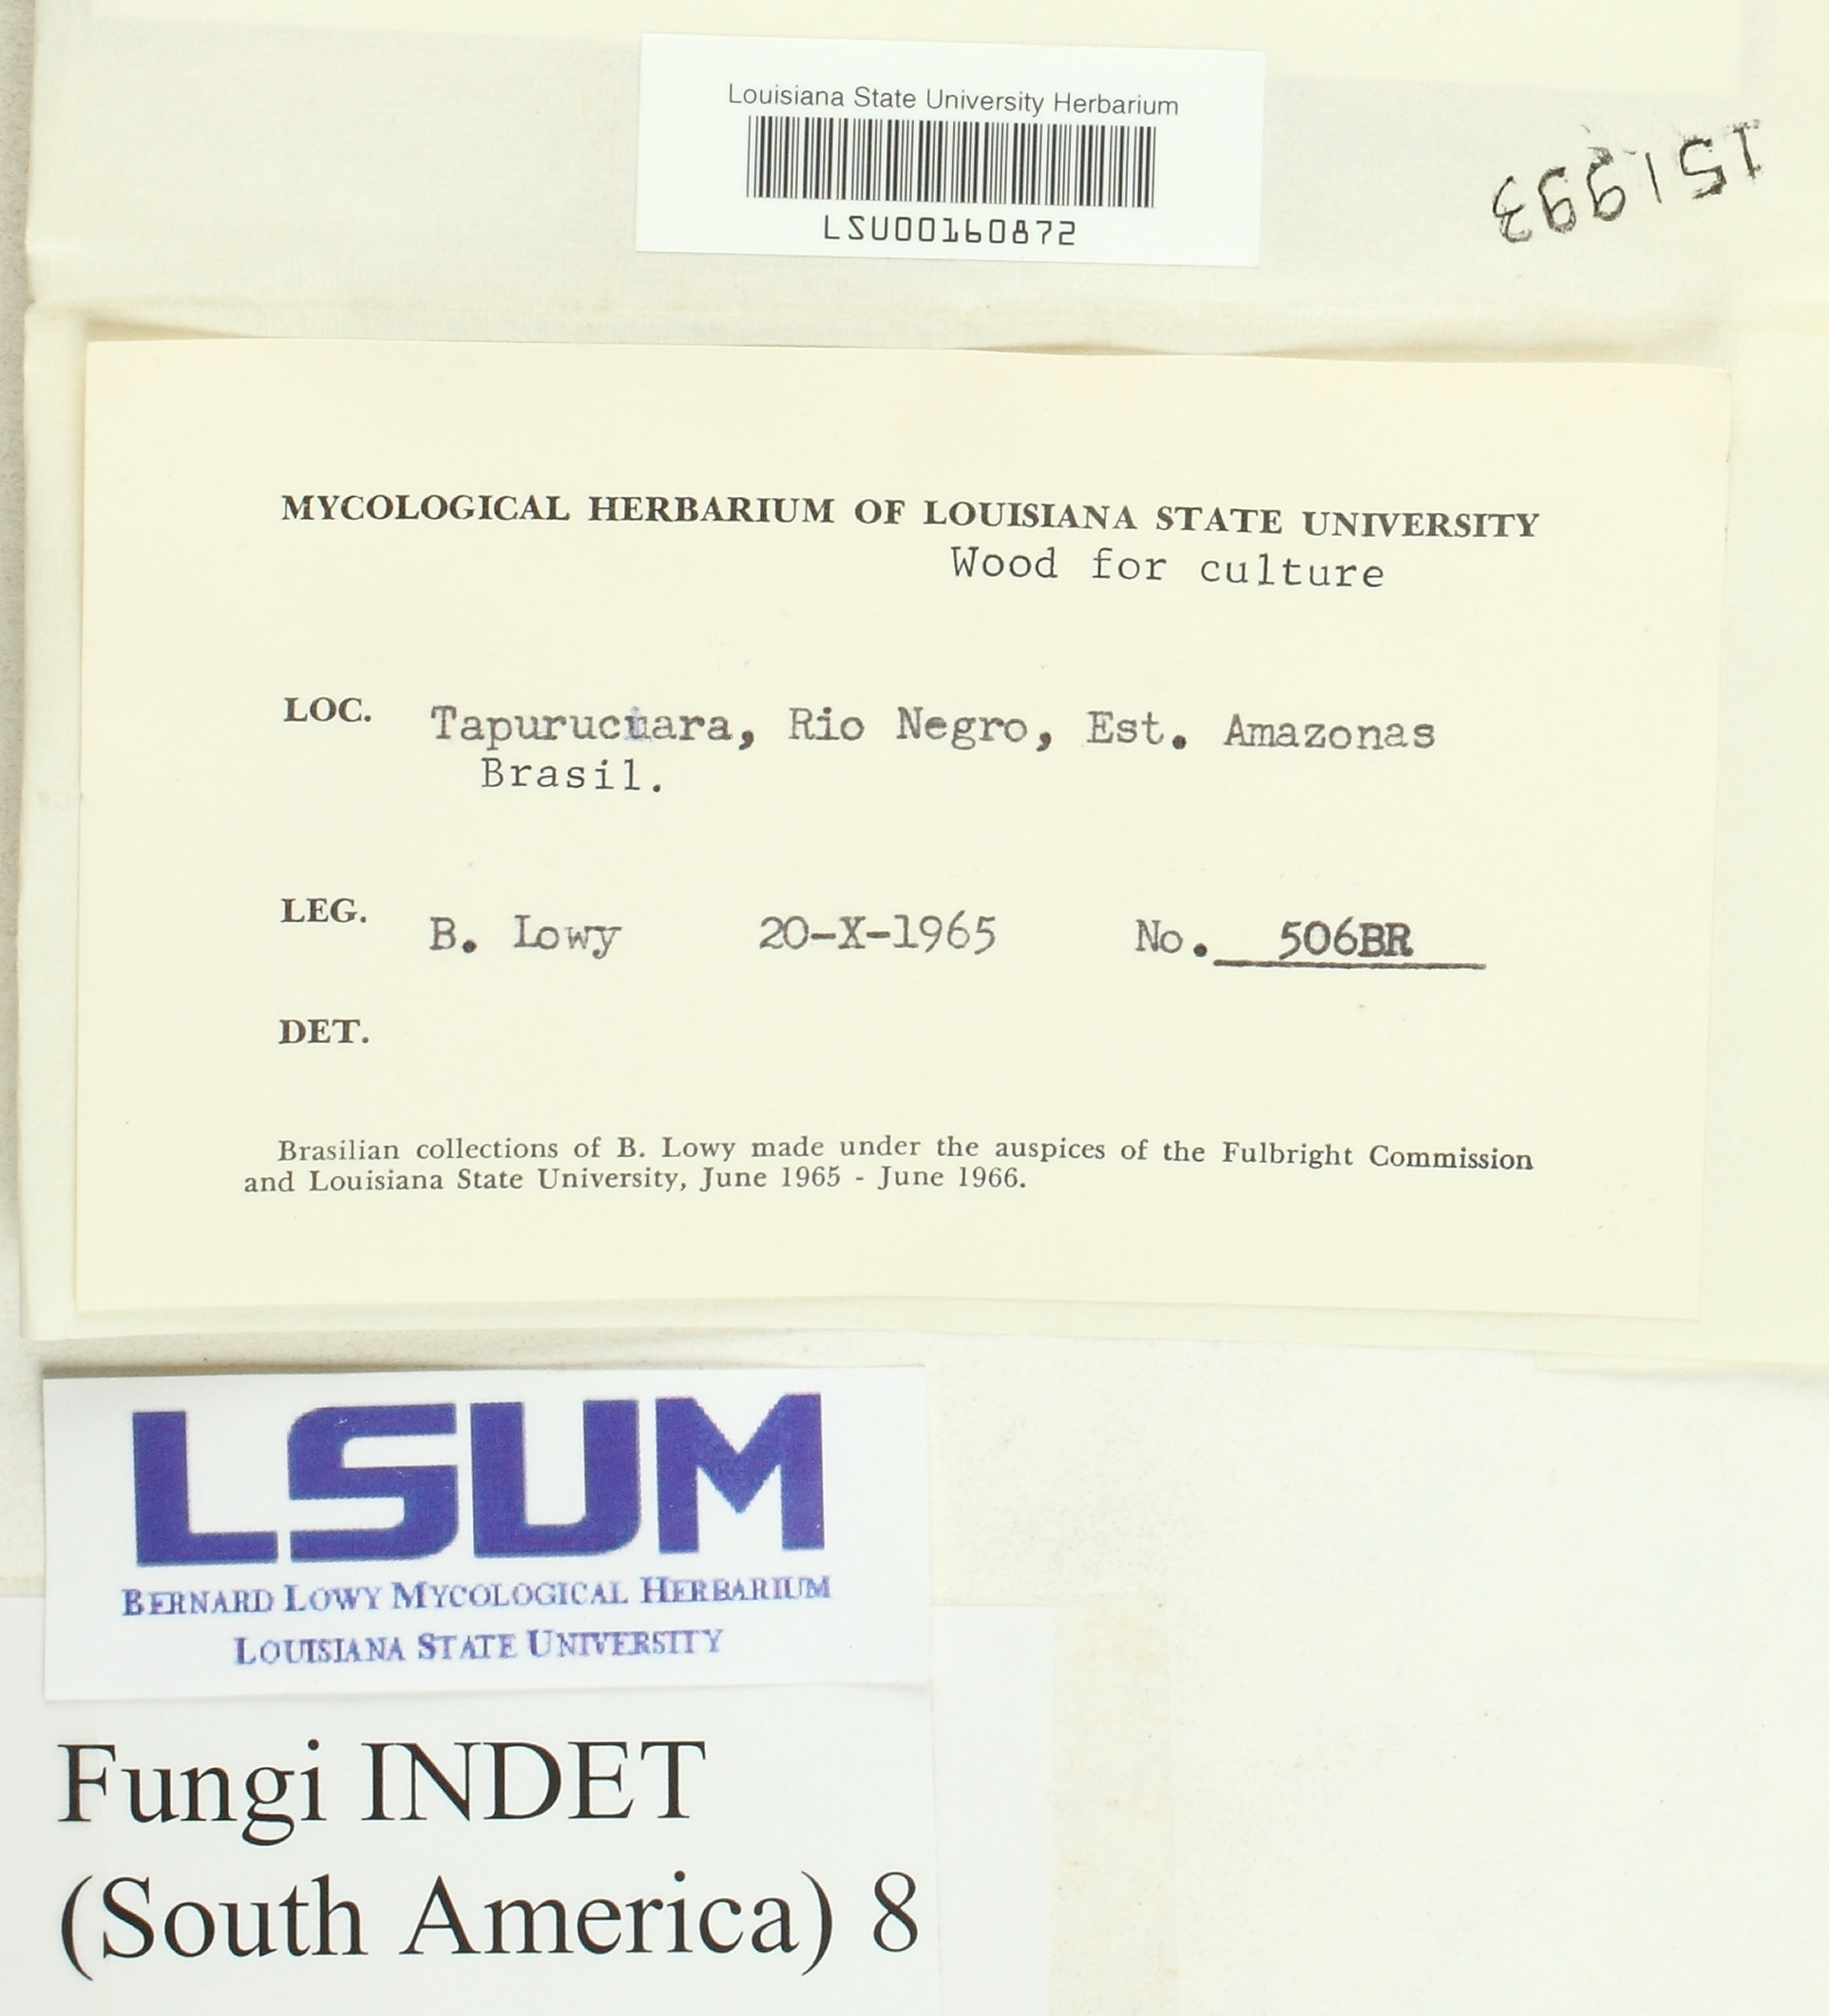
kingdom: Fungi
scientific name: Fungi
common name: Fungi
